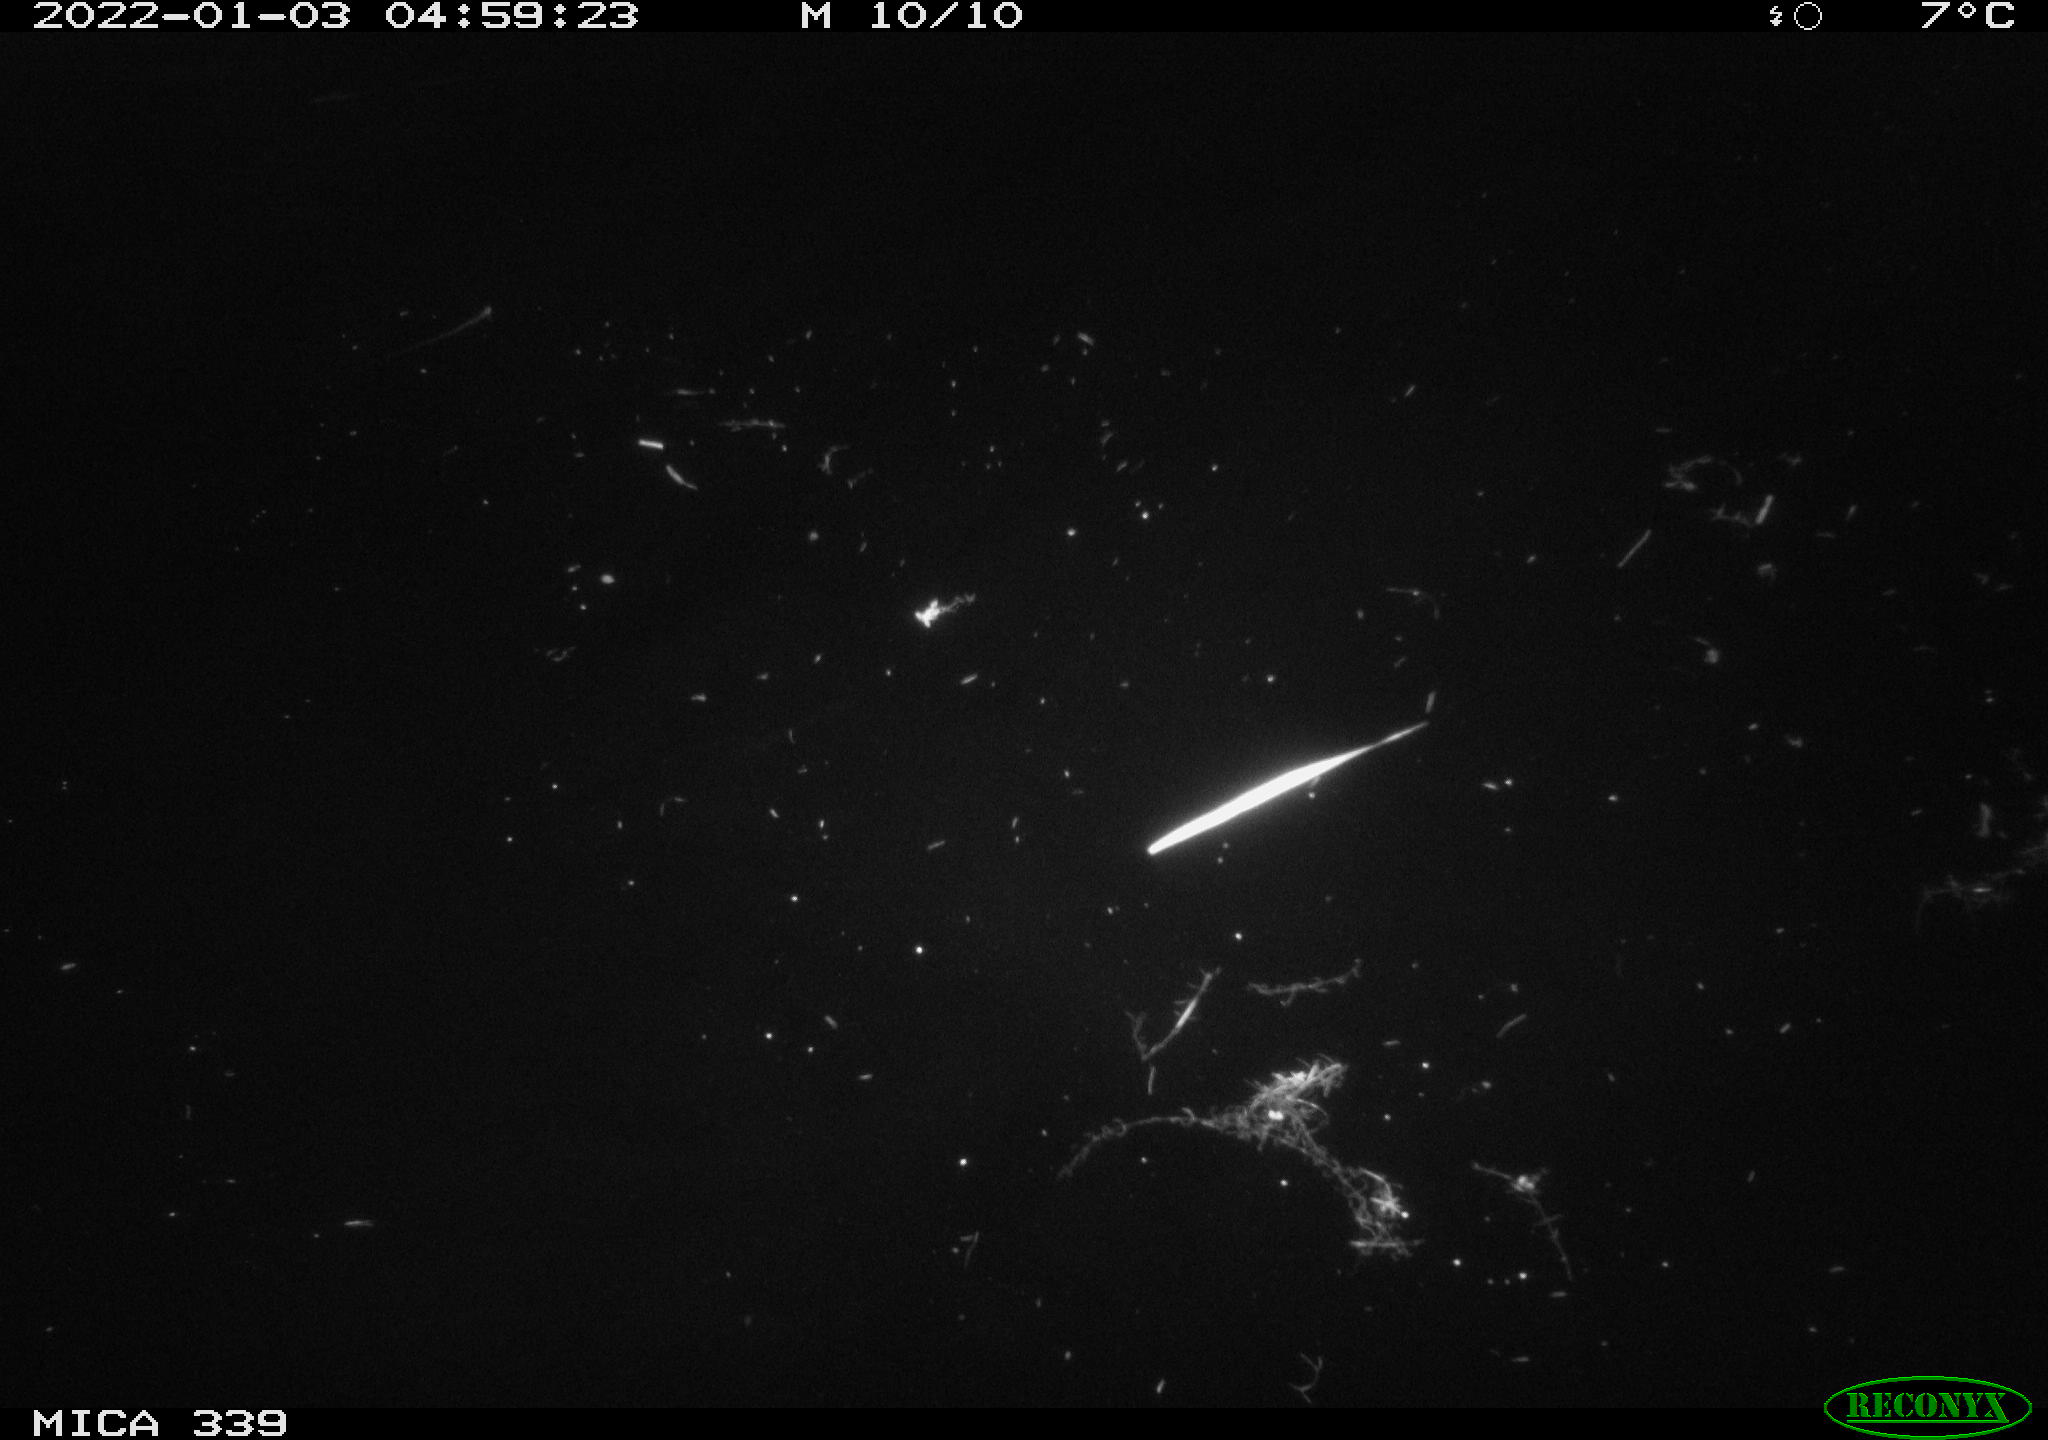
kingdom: Animalia
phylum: Chordata
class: Mammalia
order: Carnivora
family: Mustelidae
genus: Lutra
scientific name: Lutra lutra
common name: European otter
